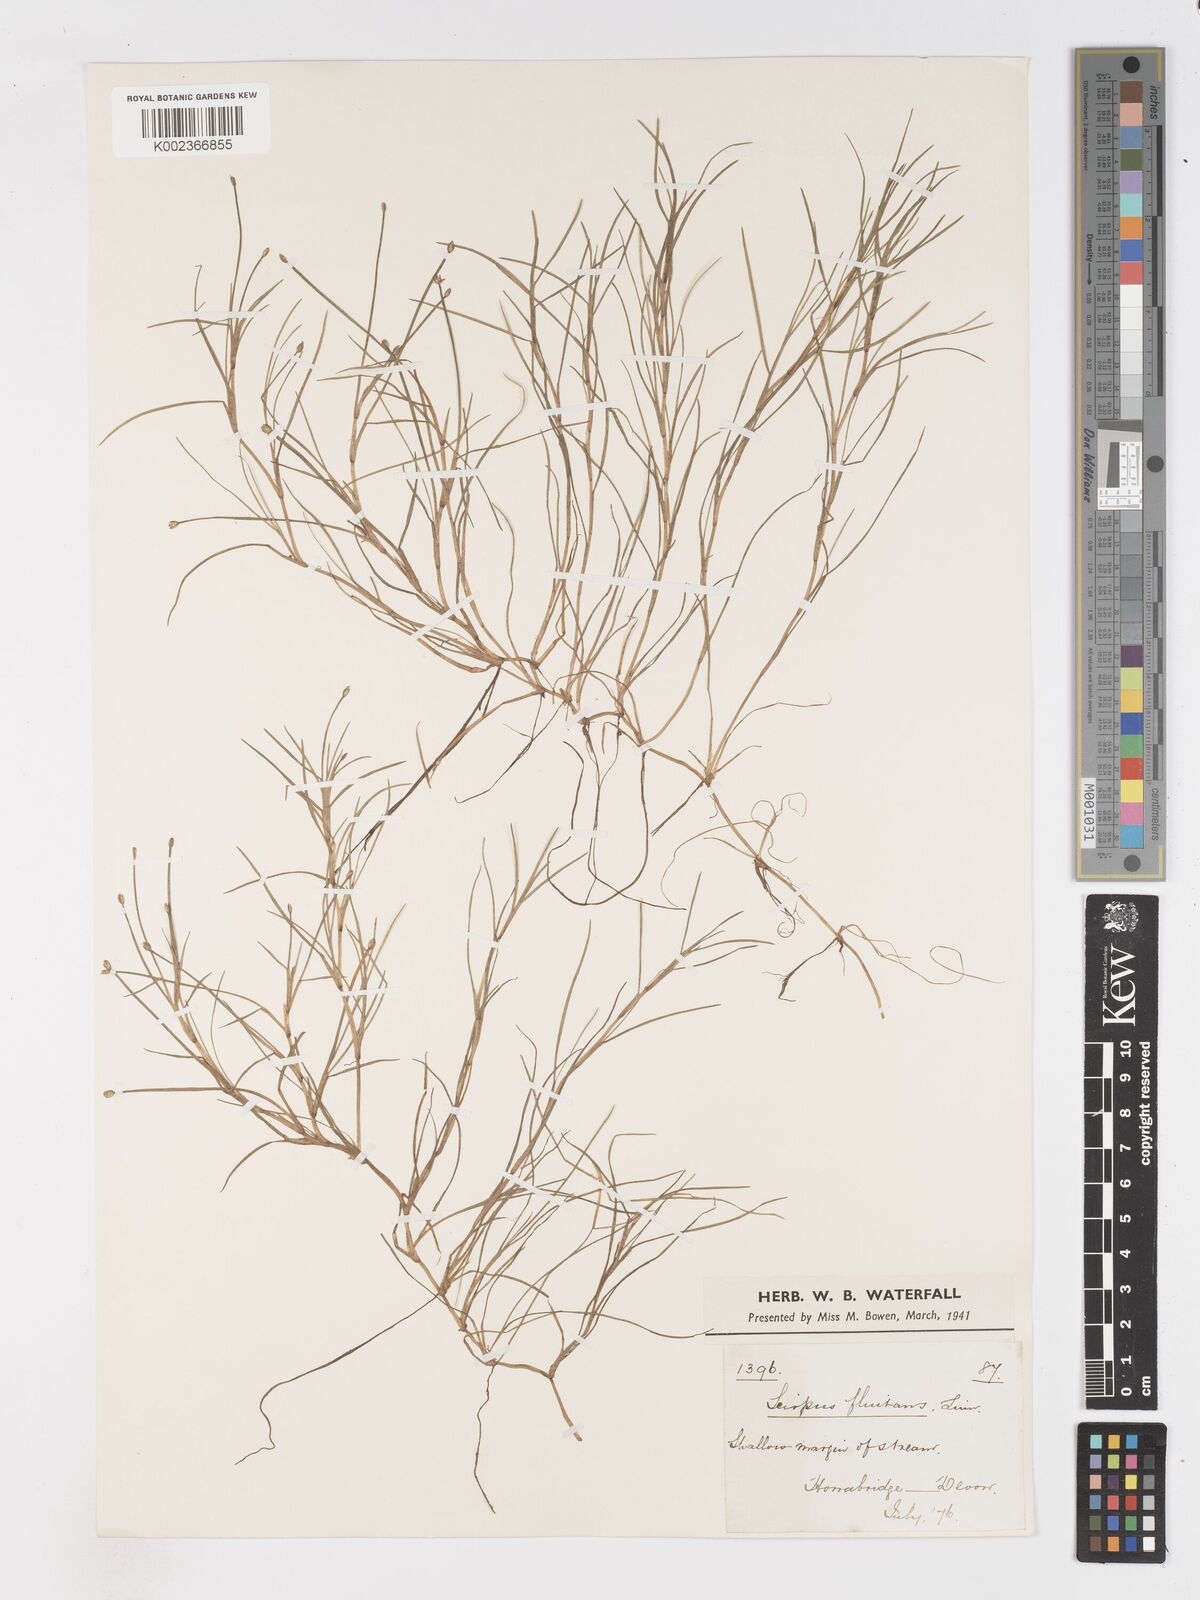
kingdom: Plantae
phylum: Tracheophyta
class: Liliopsida
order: Poales
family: Cyperaceae
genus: Isolepis
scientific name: Isolepis fluitans
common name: Floating club-rush
